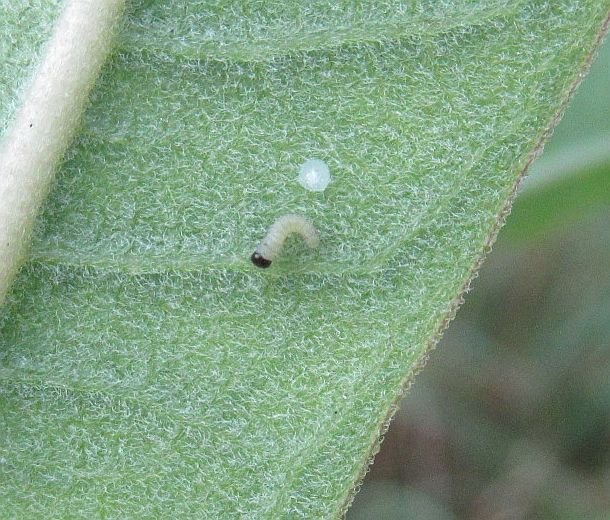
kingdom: Animalia
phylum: Arthropoda
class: Insecta
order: Lepidoptera
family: Nymphalidae
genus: Danaus
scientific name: Danaus plexippus
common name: Monarch
